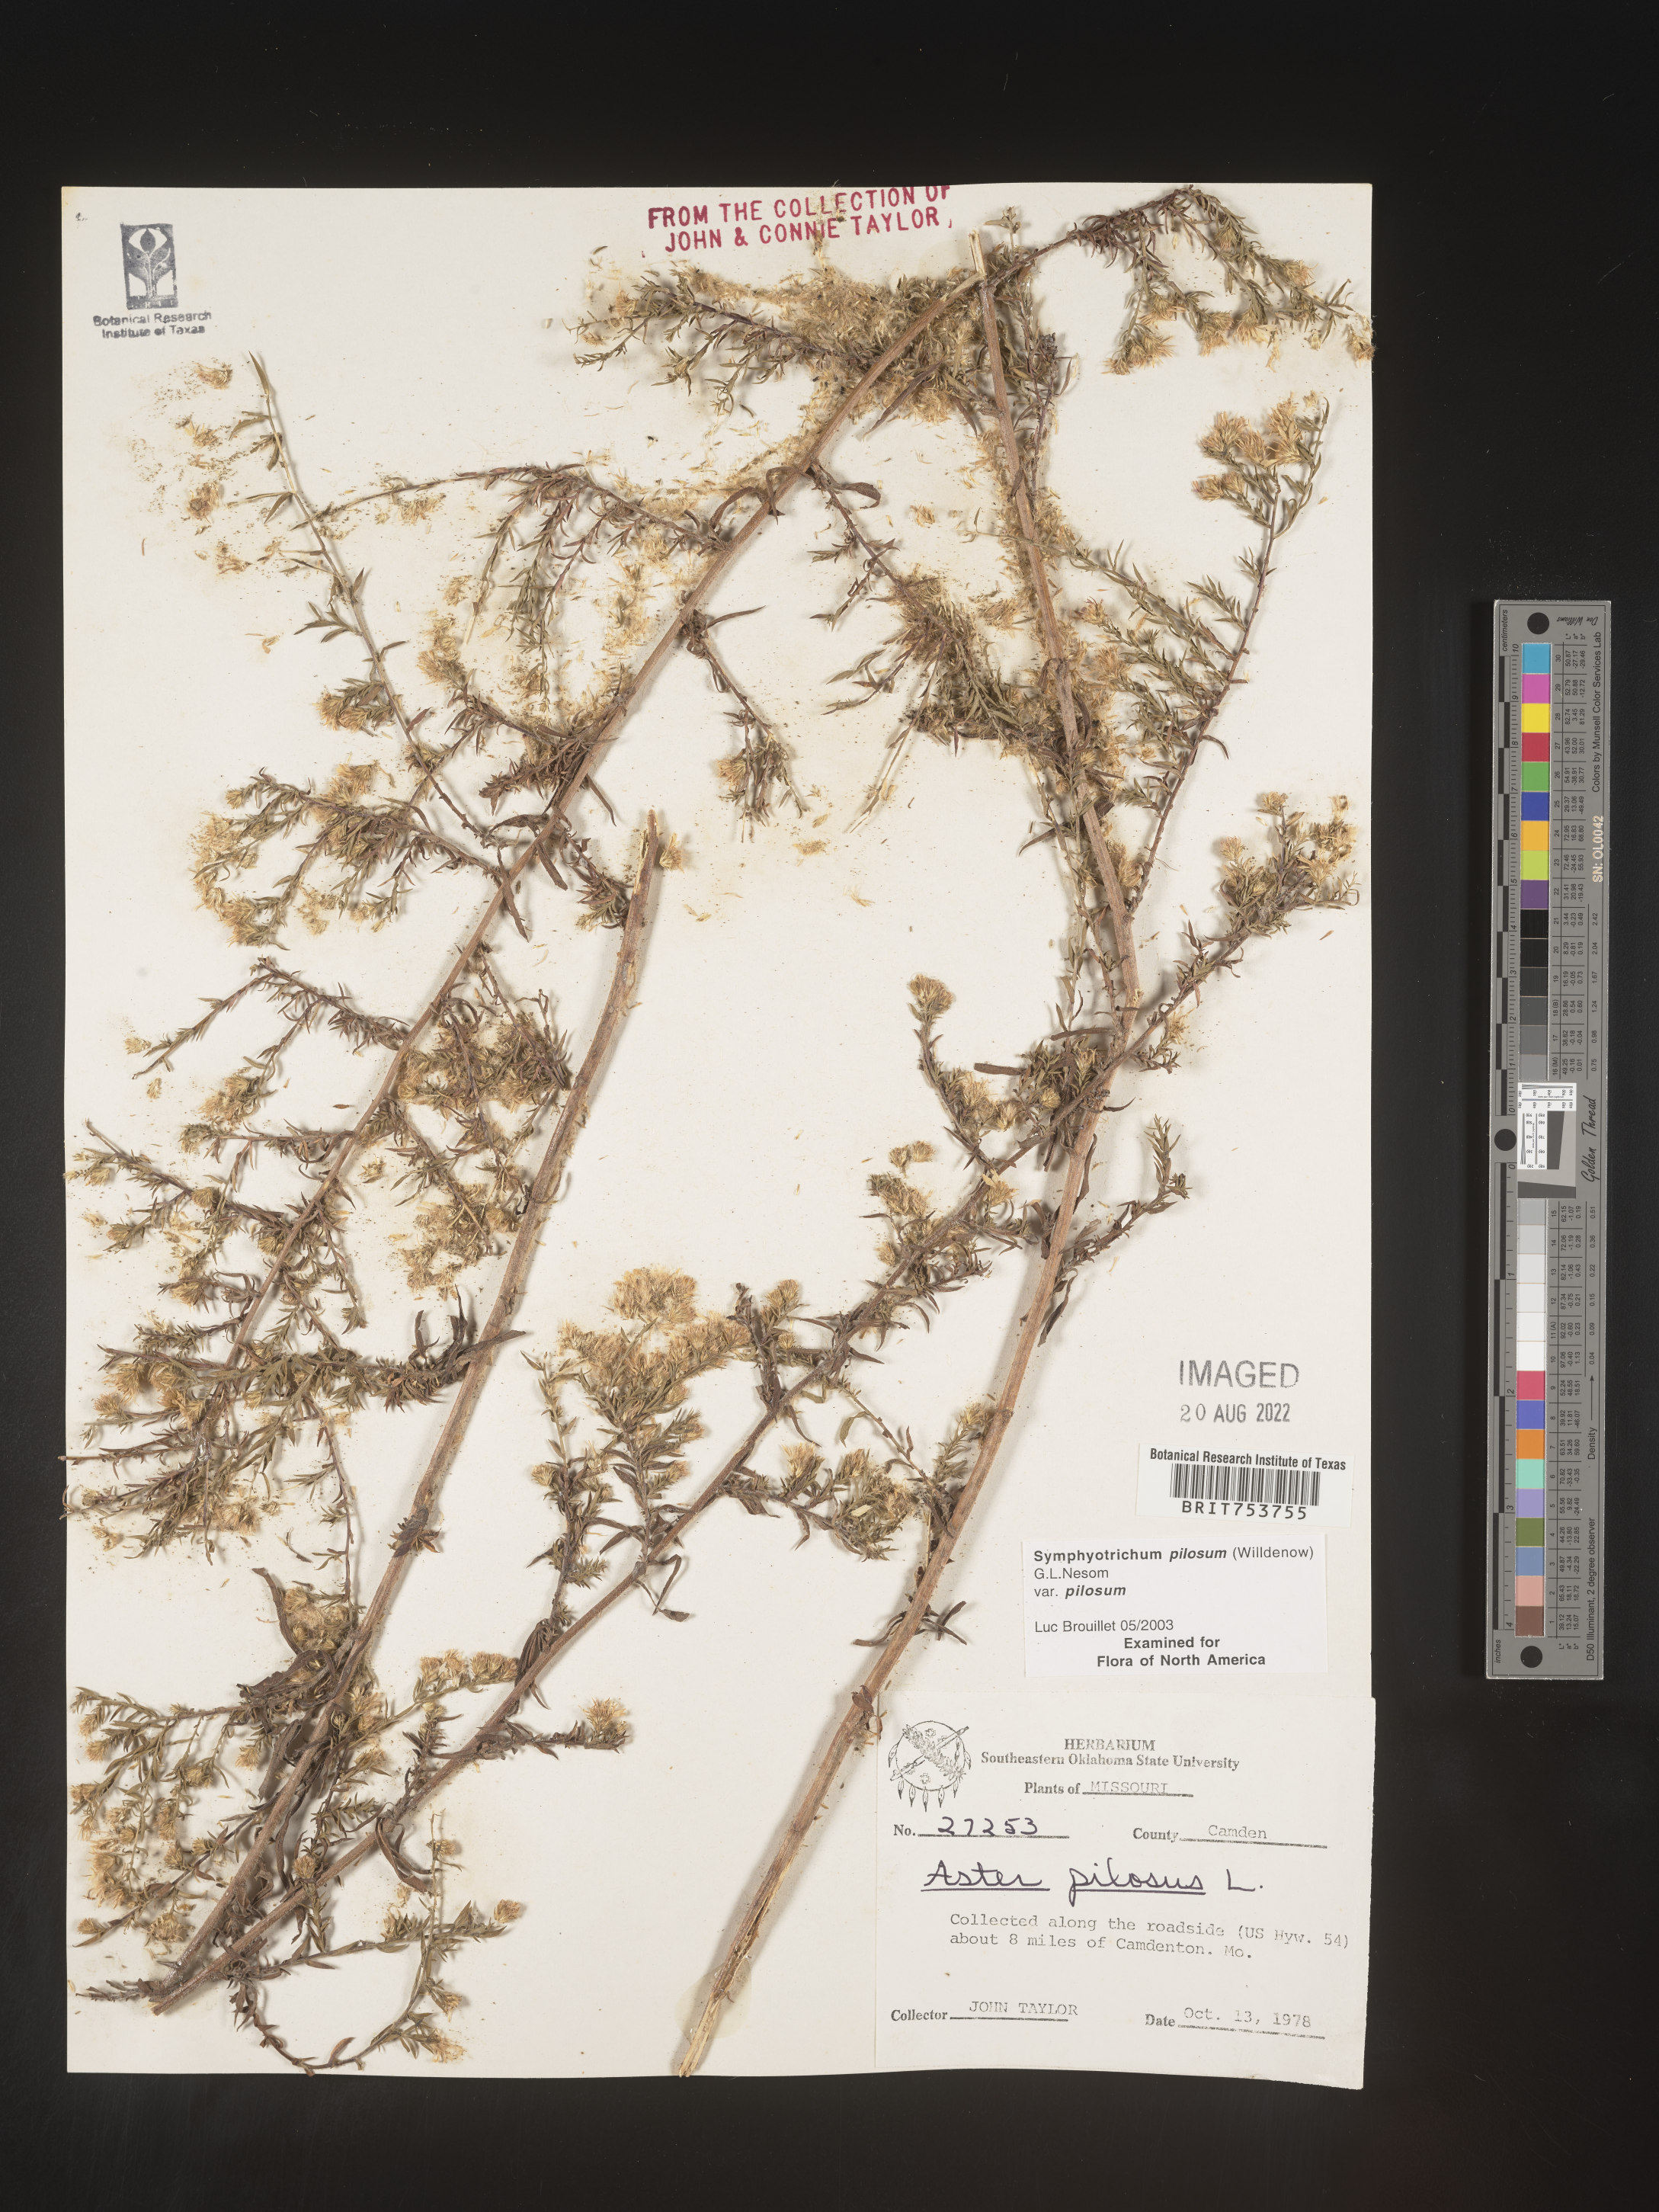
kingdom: Plantae
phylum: Tracheophyta
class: Magnoliopsida
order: Asterales
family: Asteraceae
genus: Symphyotrichum
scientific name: Symphyotrichum pilosum
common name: Awl aster
